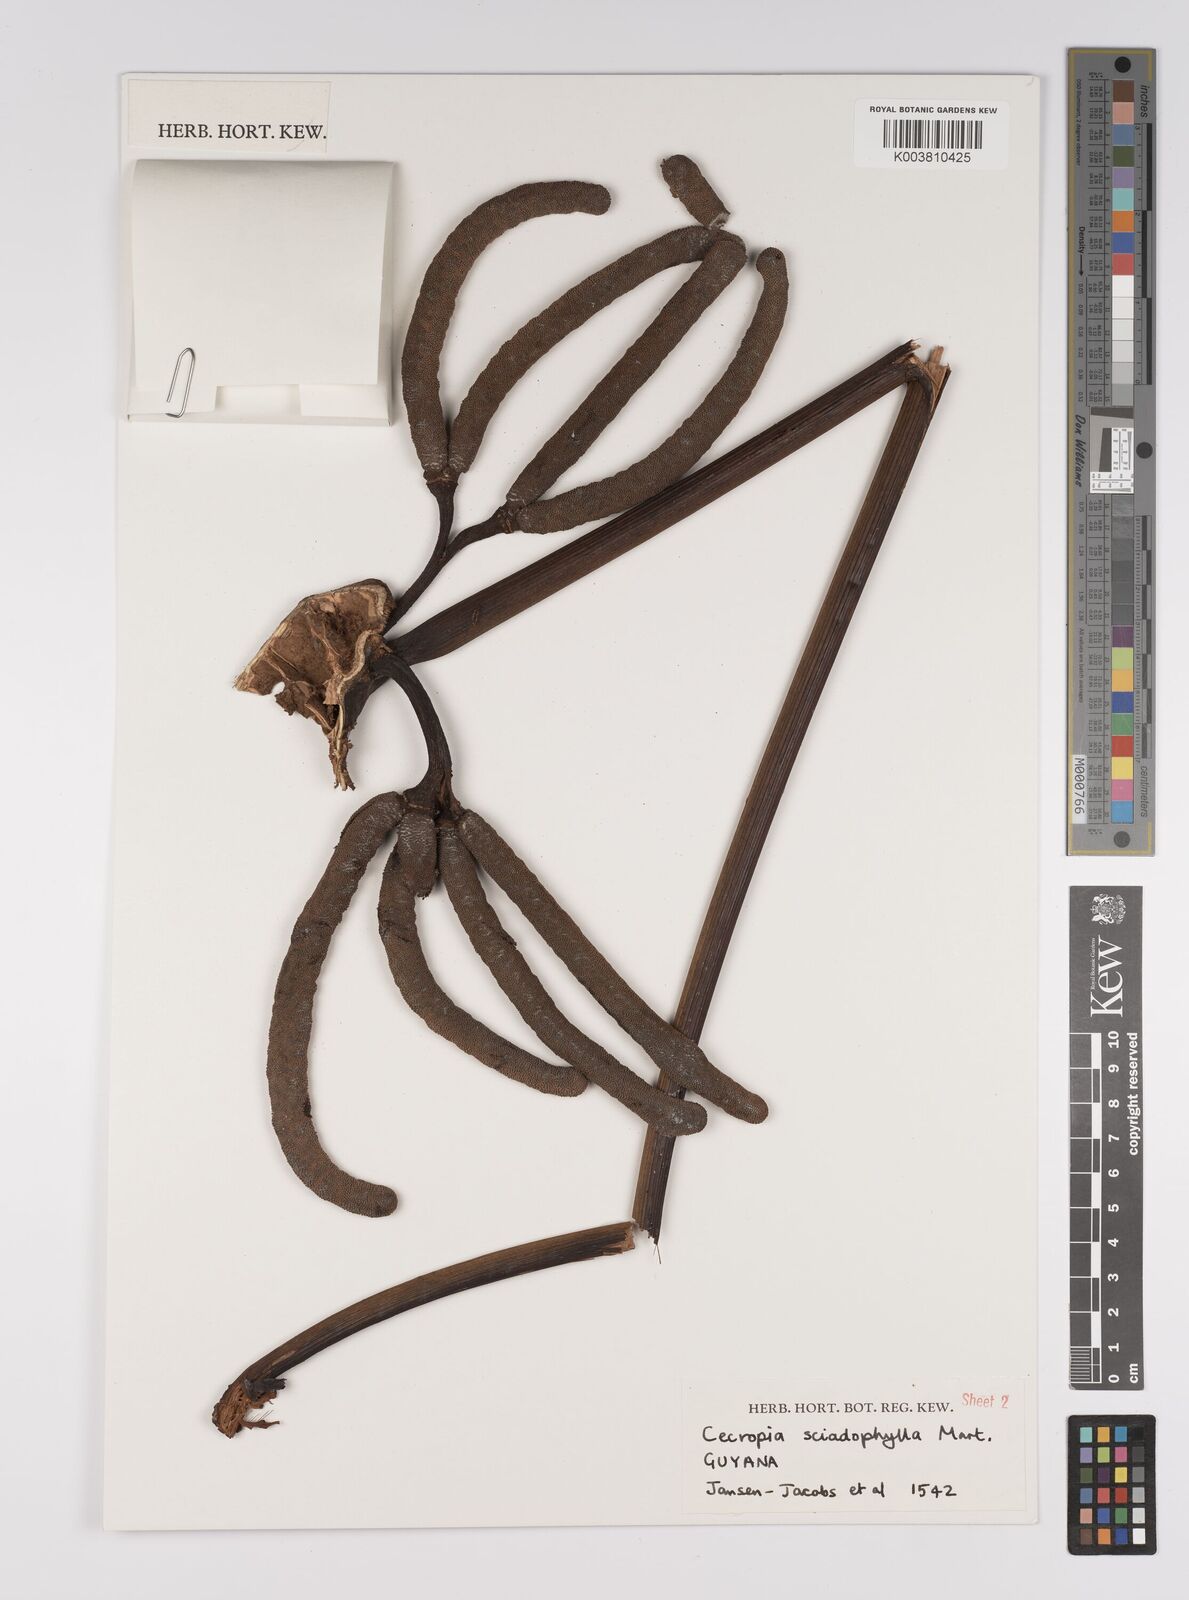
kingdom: Plantae
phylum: Tracheophyta
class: Magnoliopsida
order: Rosales
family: Urticaceae
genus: Cecropia
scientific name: Cecropia sciadophylla
